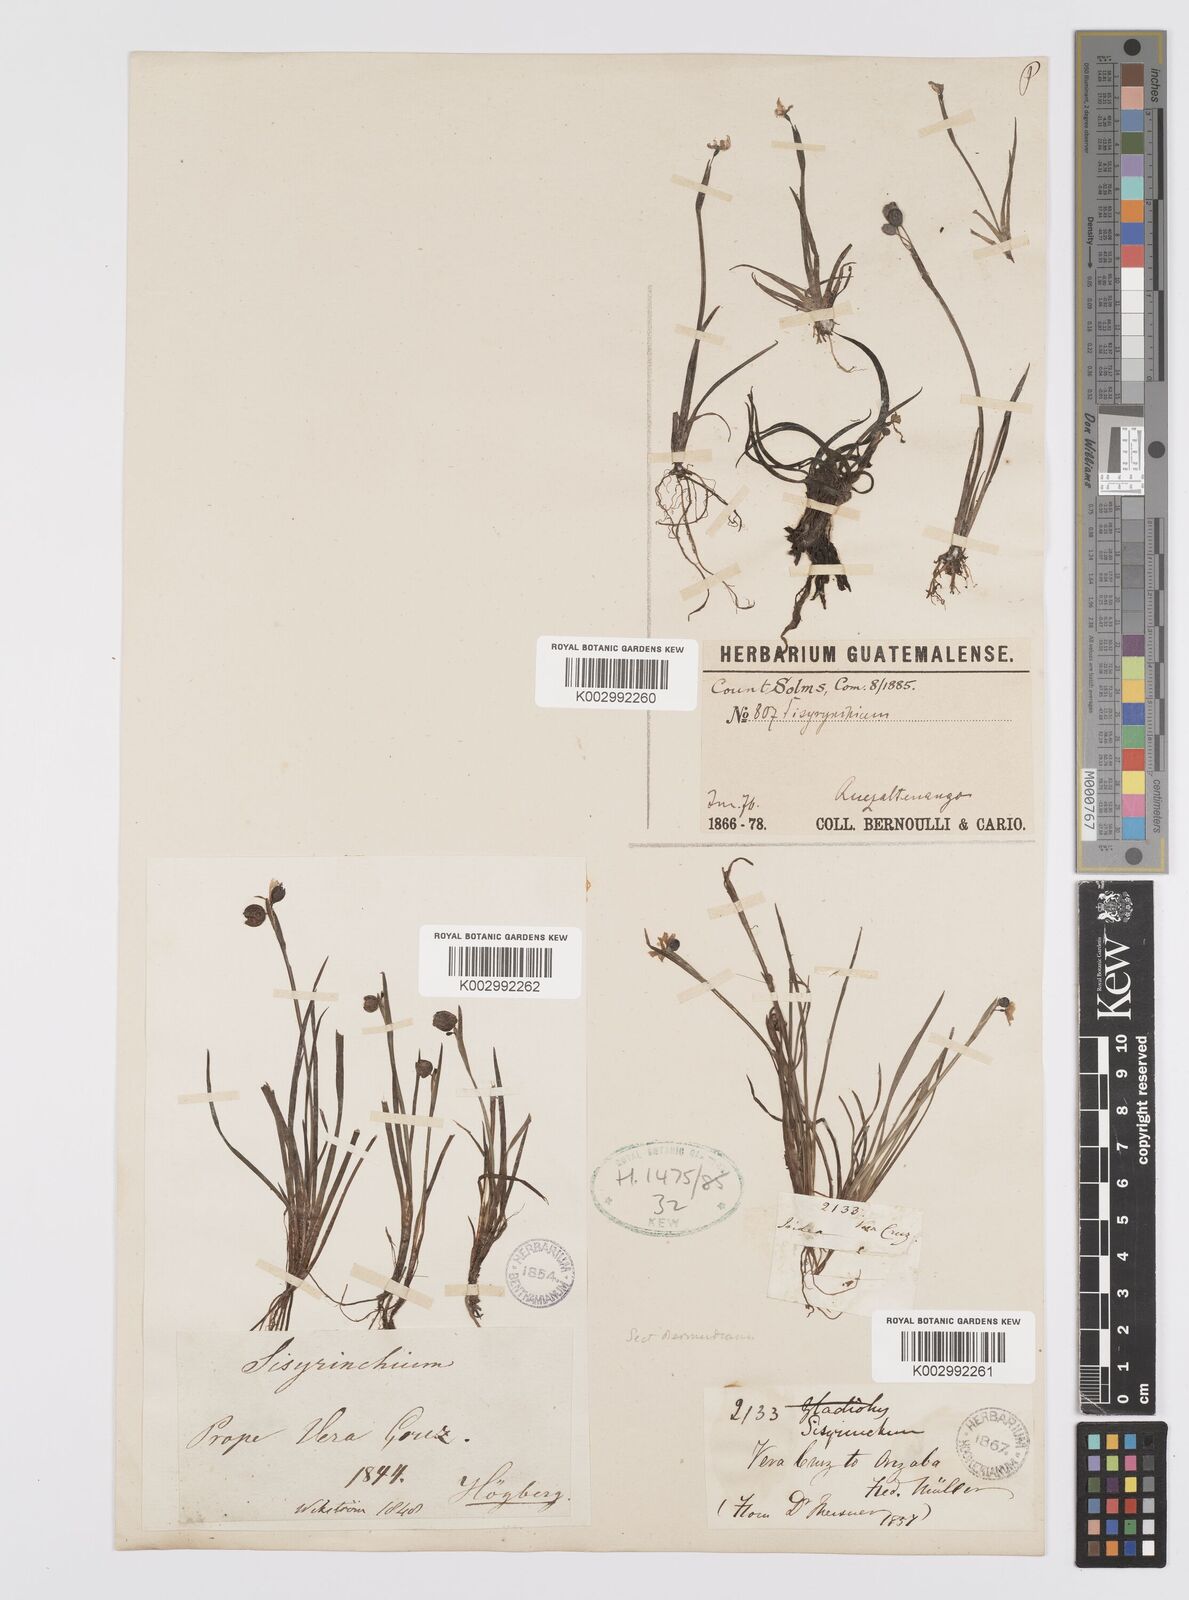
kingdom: Plantae
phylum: Tracheophyta
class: Liliopsida
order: Asparagales
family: Iridaceae
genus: Sisyrinchium
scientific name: Sisyrinchium
